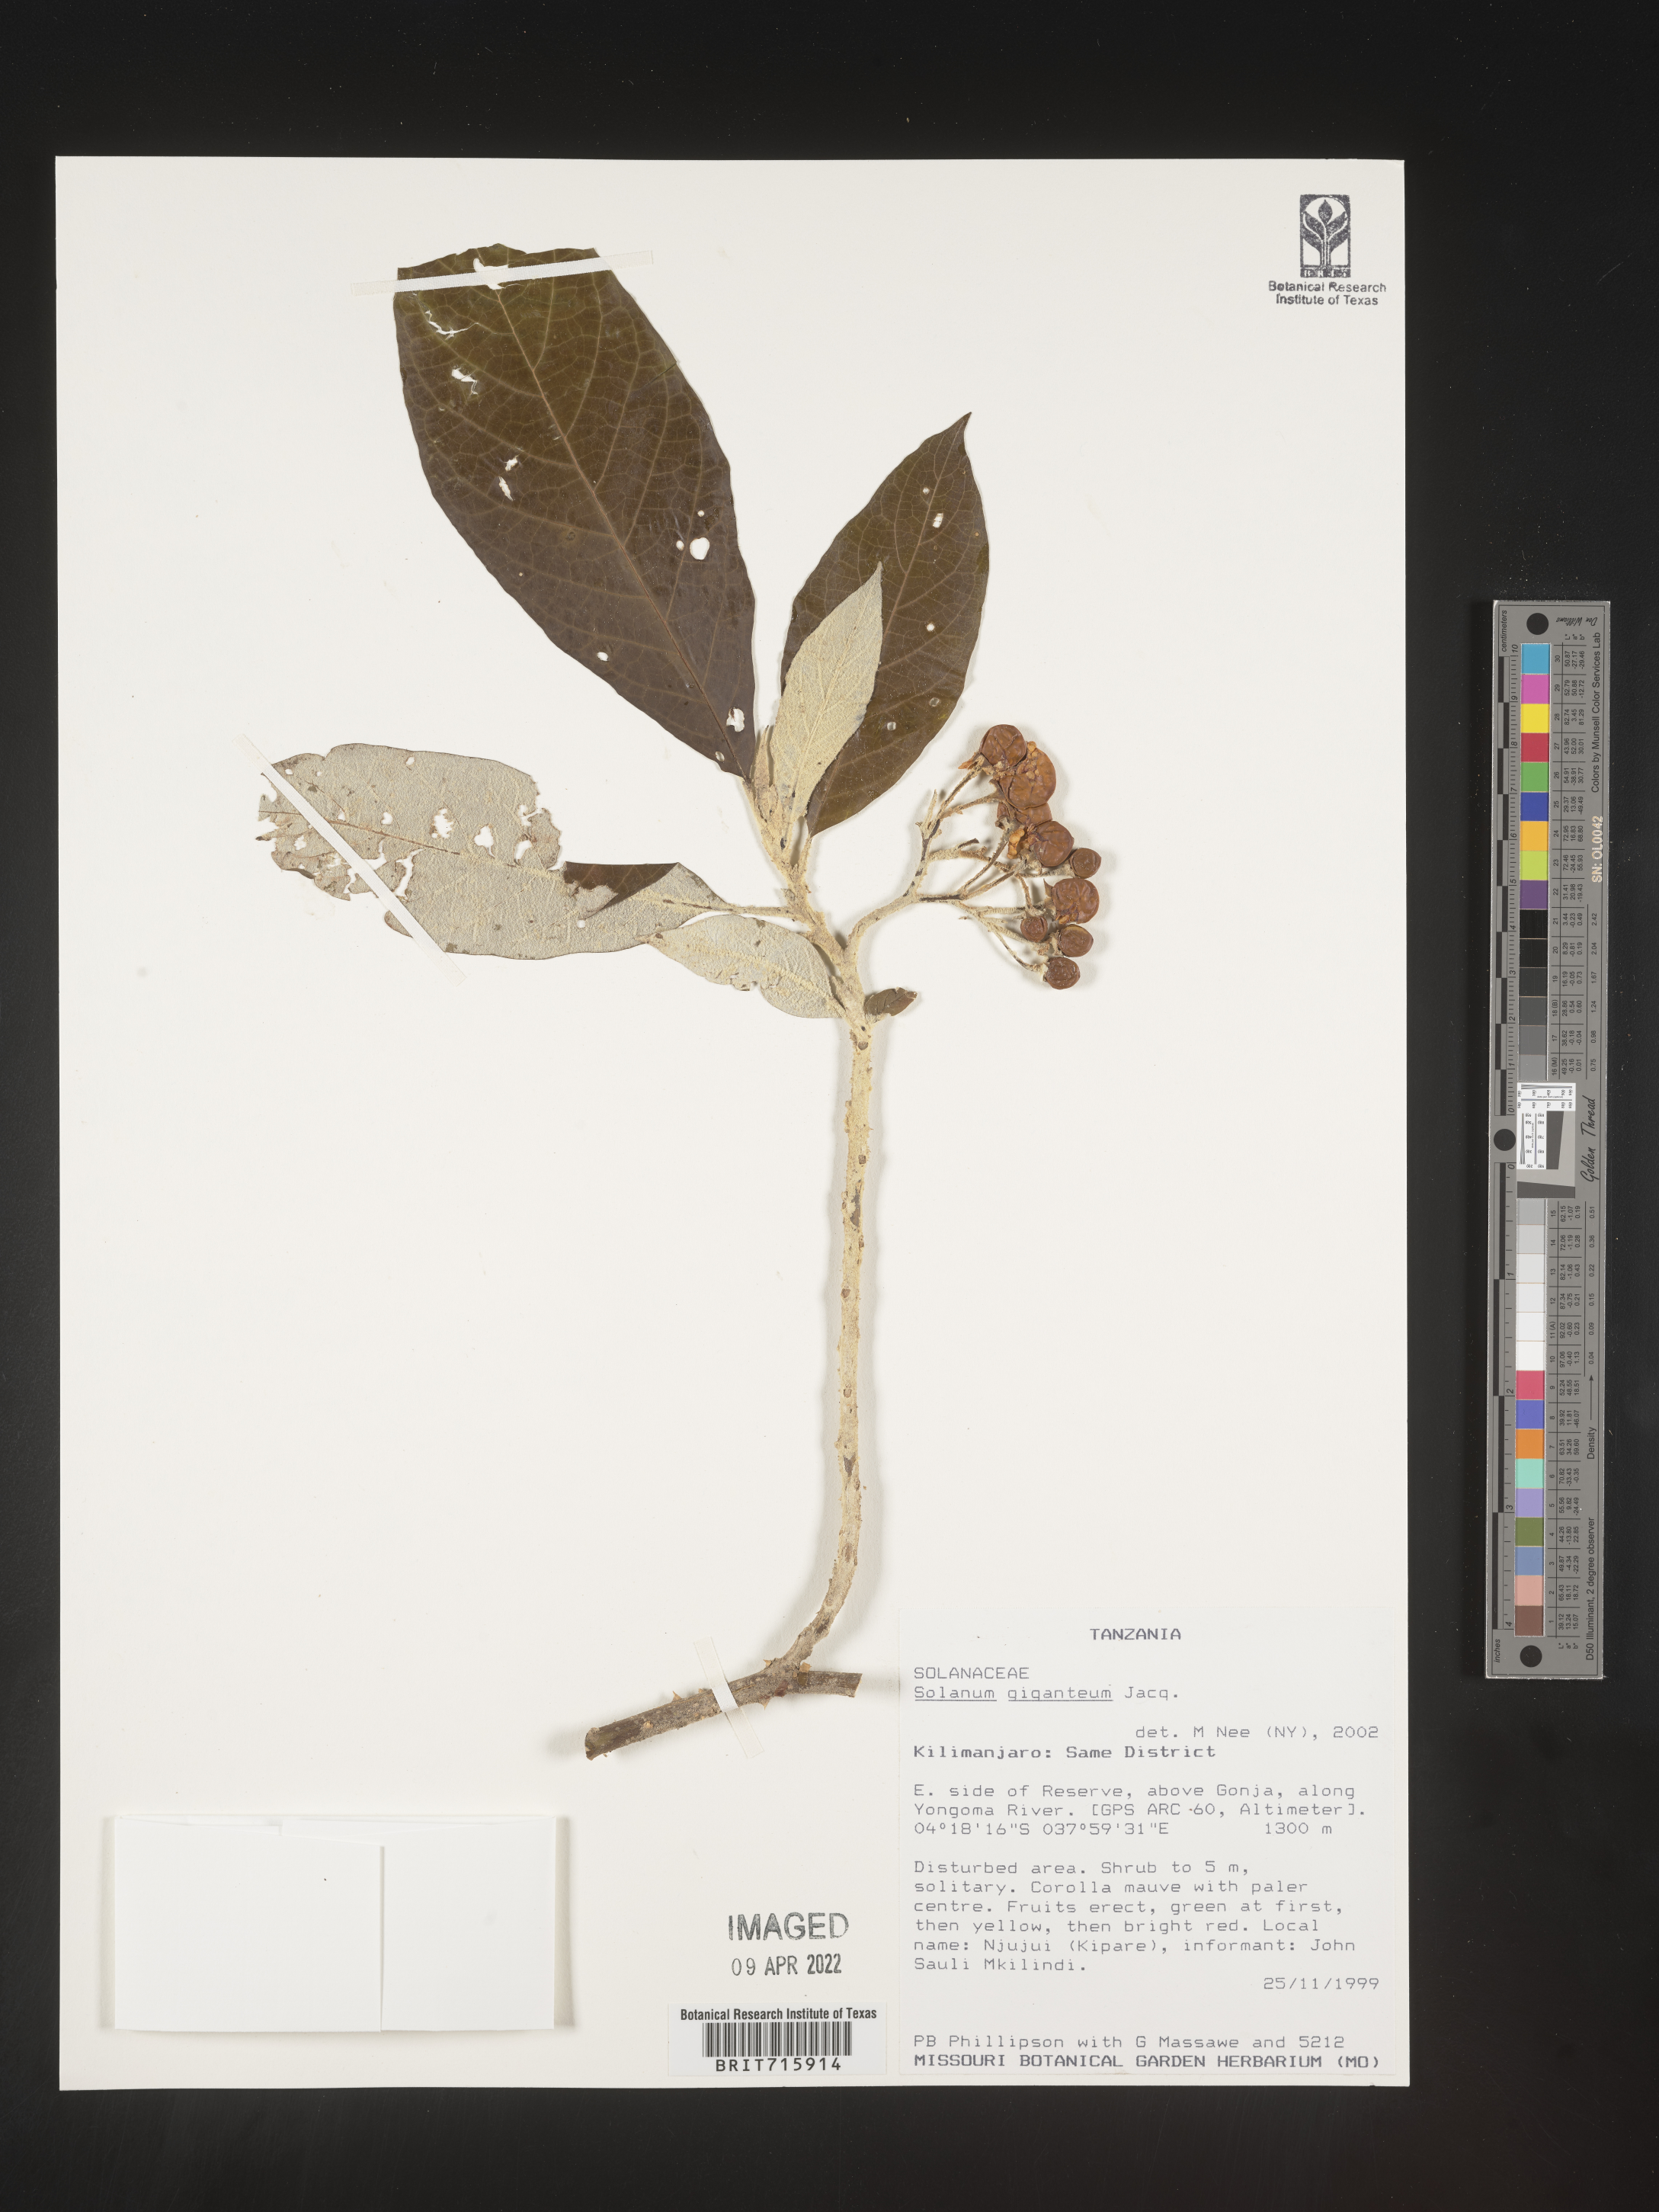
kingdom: Plantae
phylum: Tracheophyta
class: Magnoliopsida
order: Solanales
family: Solanaceae
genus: Solanum
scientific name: Solanum
